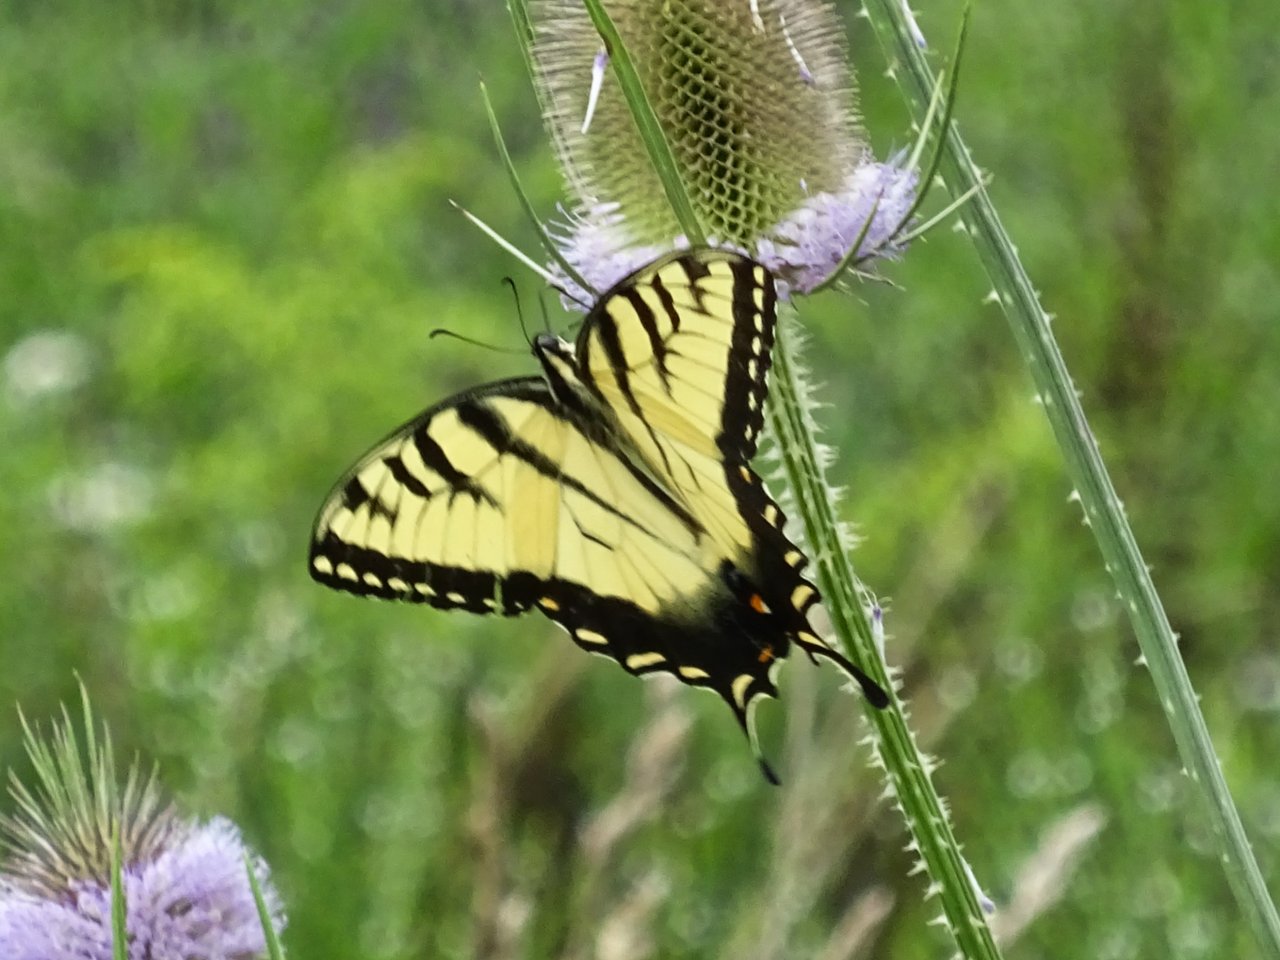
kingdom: Animalia
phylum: Arthropoda
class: Insecta
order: Lepidoptera
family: Papilionidae
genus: Pterourus
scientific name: Pterourus glaucus
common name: Eastern Tiger Swallowtail
